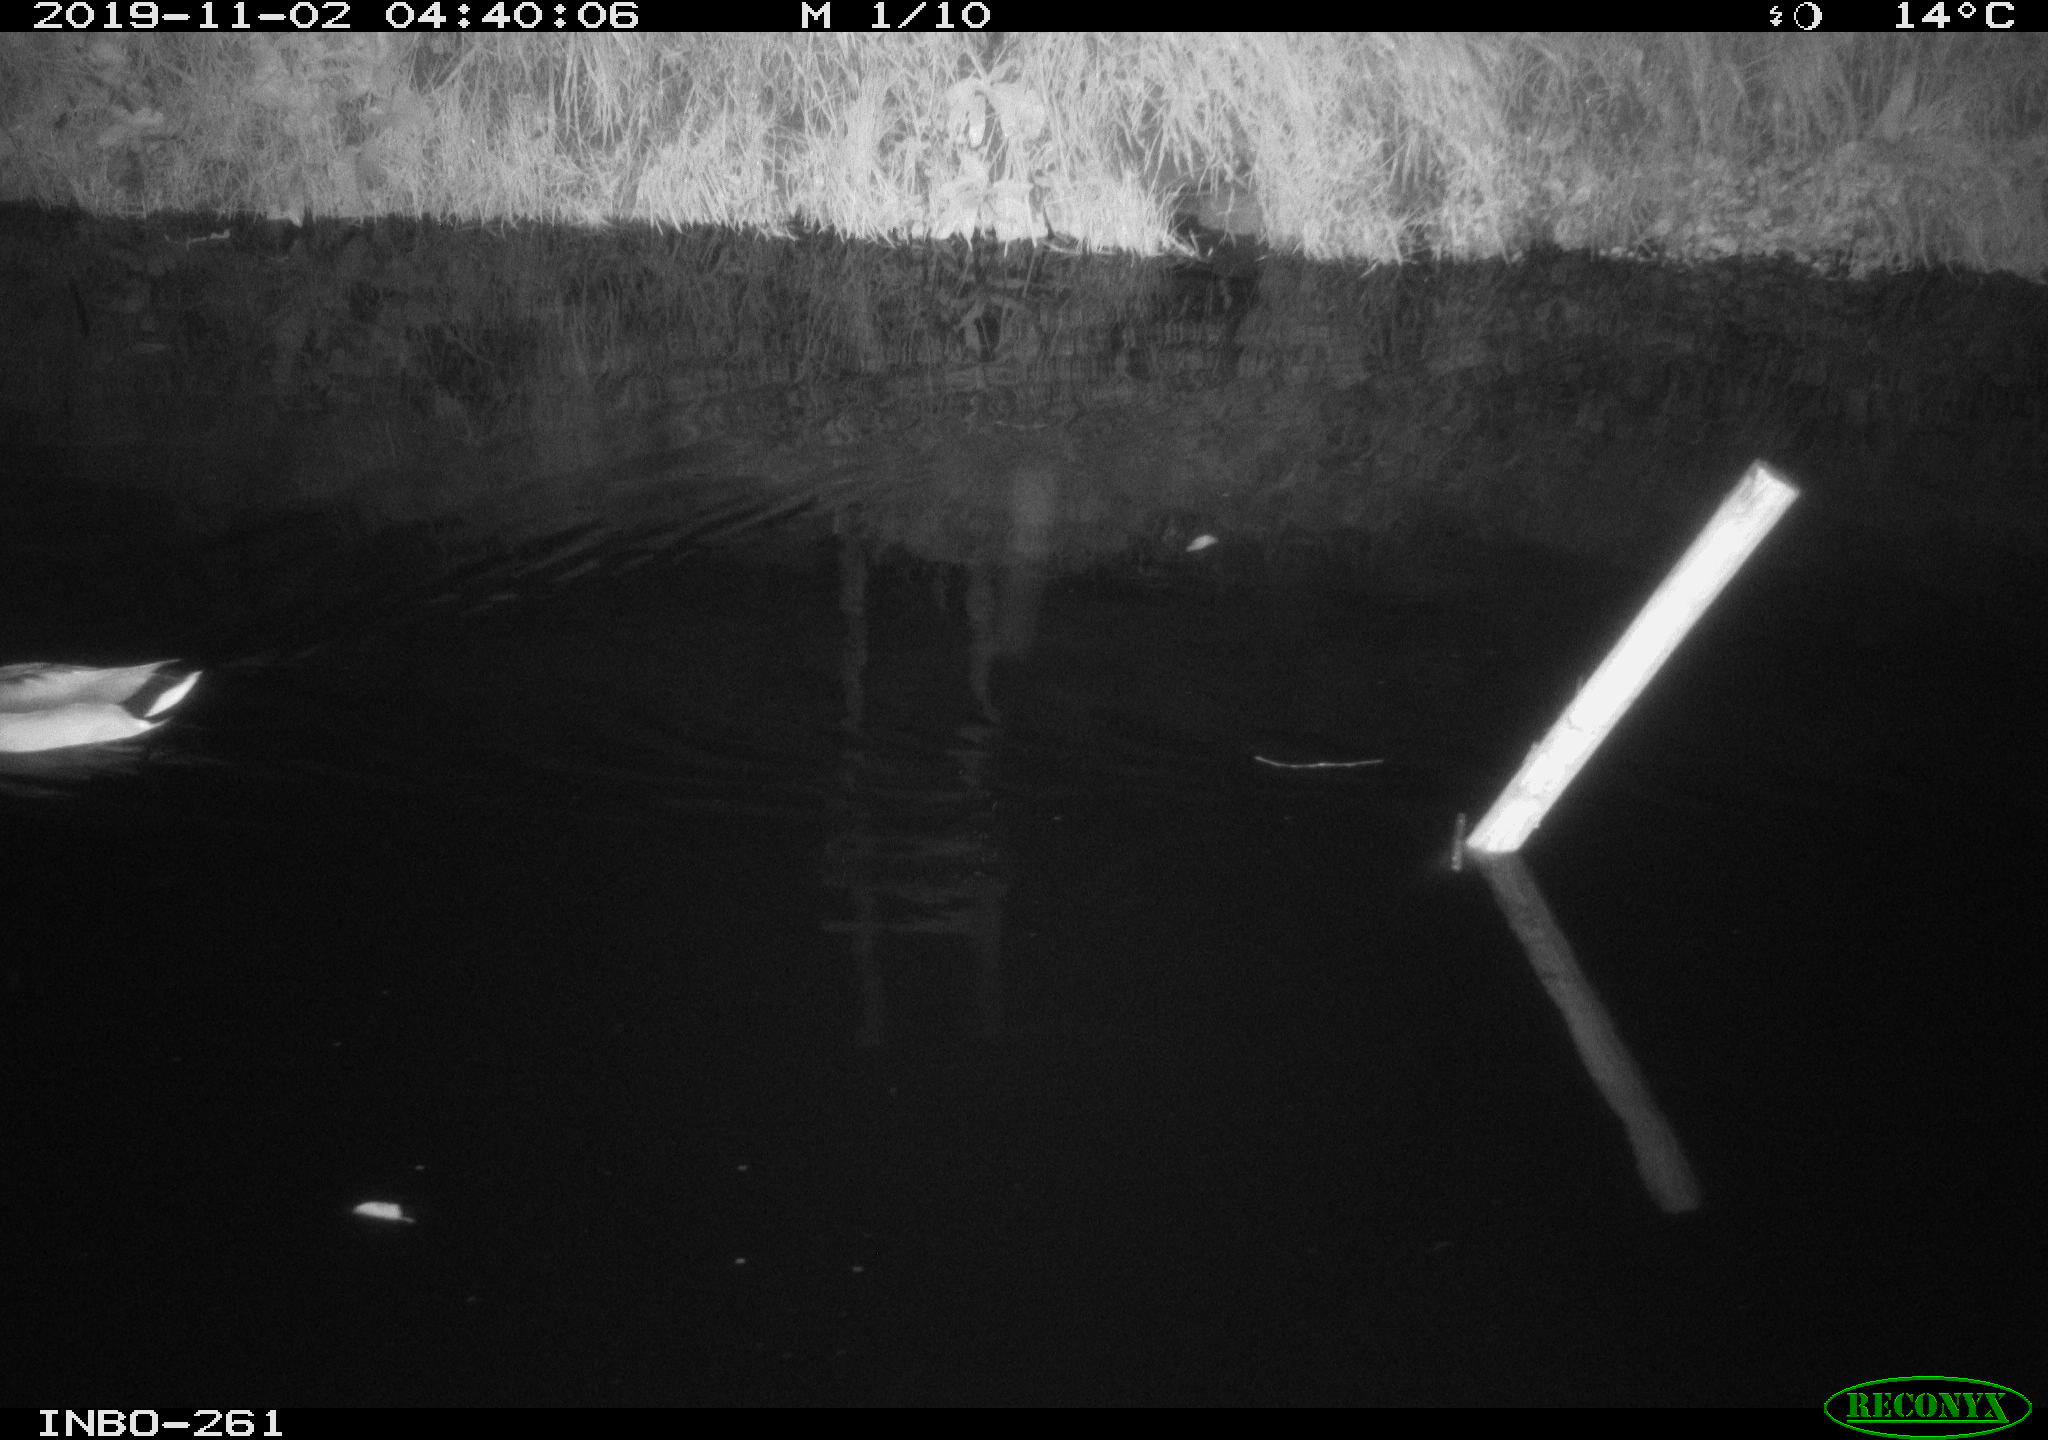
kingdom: Animalia
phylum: Chordata
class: Aves
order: Anseriformes
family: Anatidae
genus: Anas
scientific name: Anas platyrhynchos
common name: Mallard
